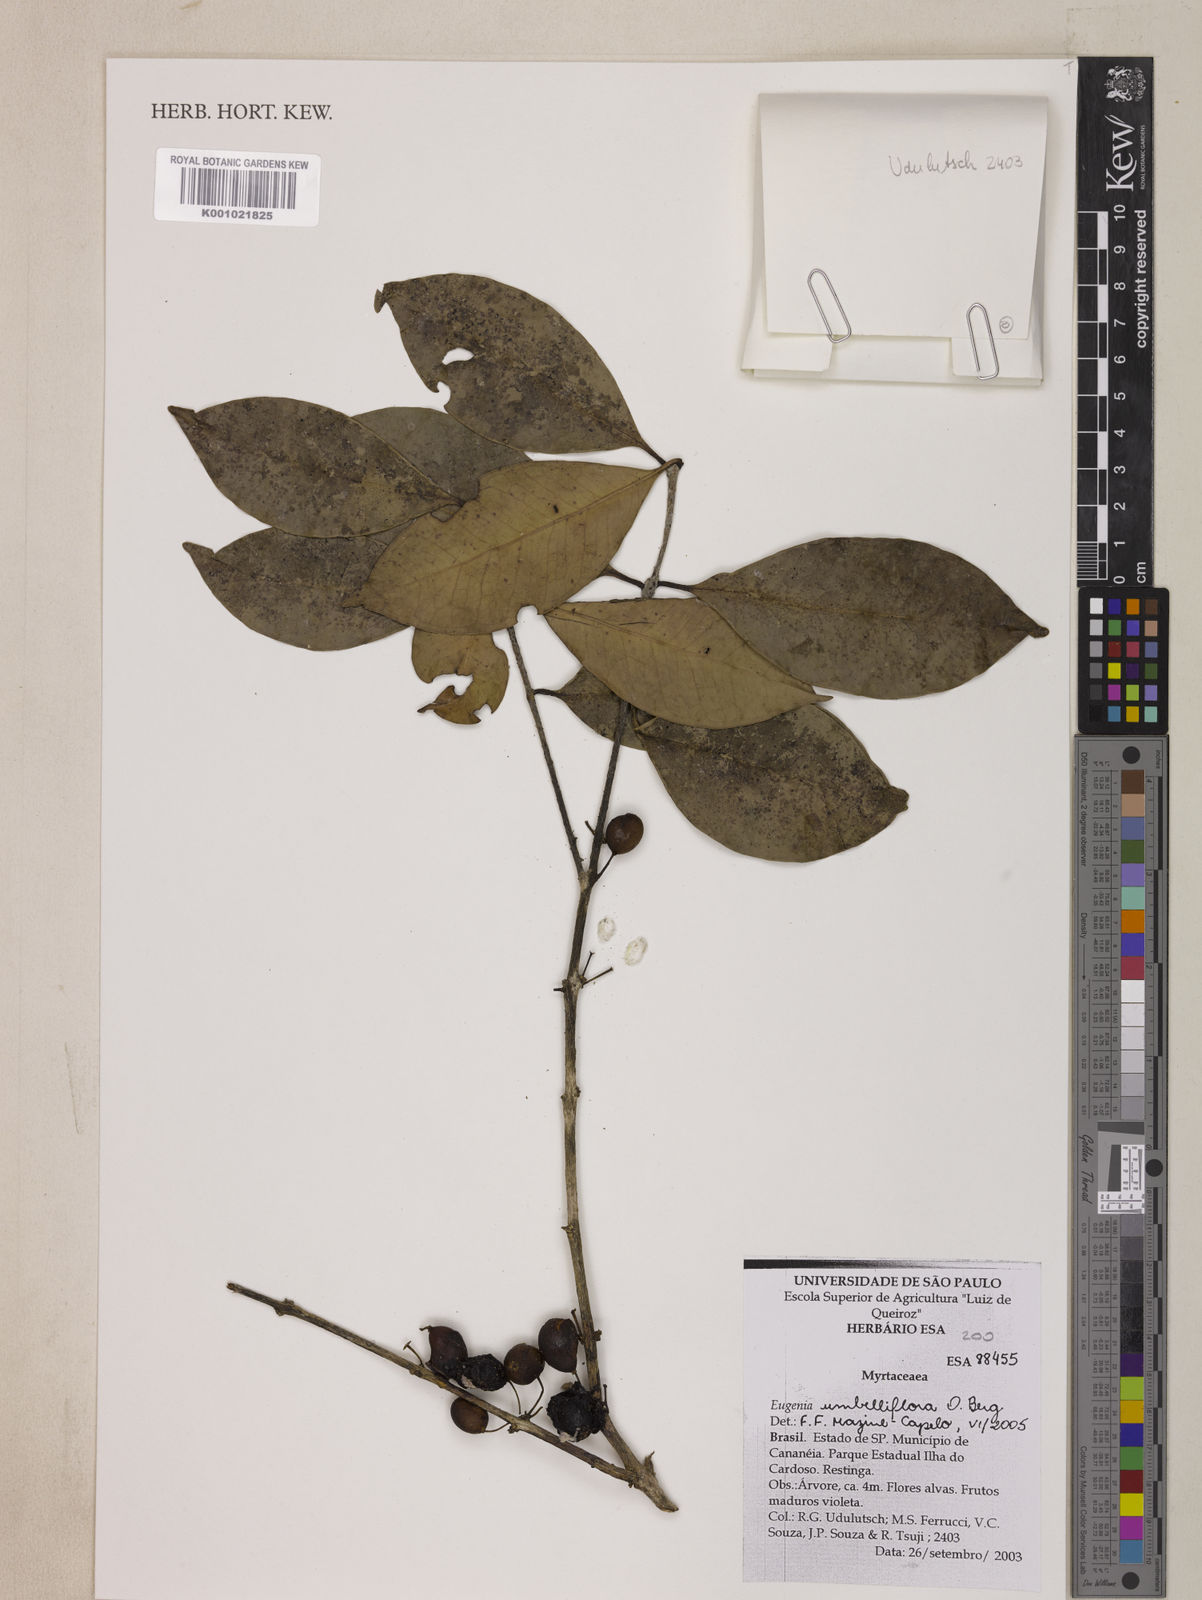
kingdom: Plantae
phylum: Tracheophyta
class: Magnoliopsida
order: Myrtales
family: Myrtaceae
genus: Eugenia
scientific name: Eugenia astringens
